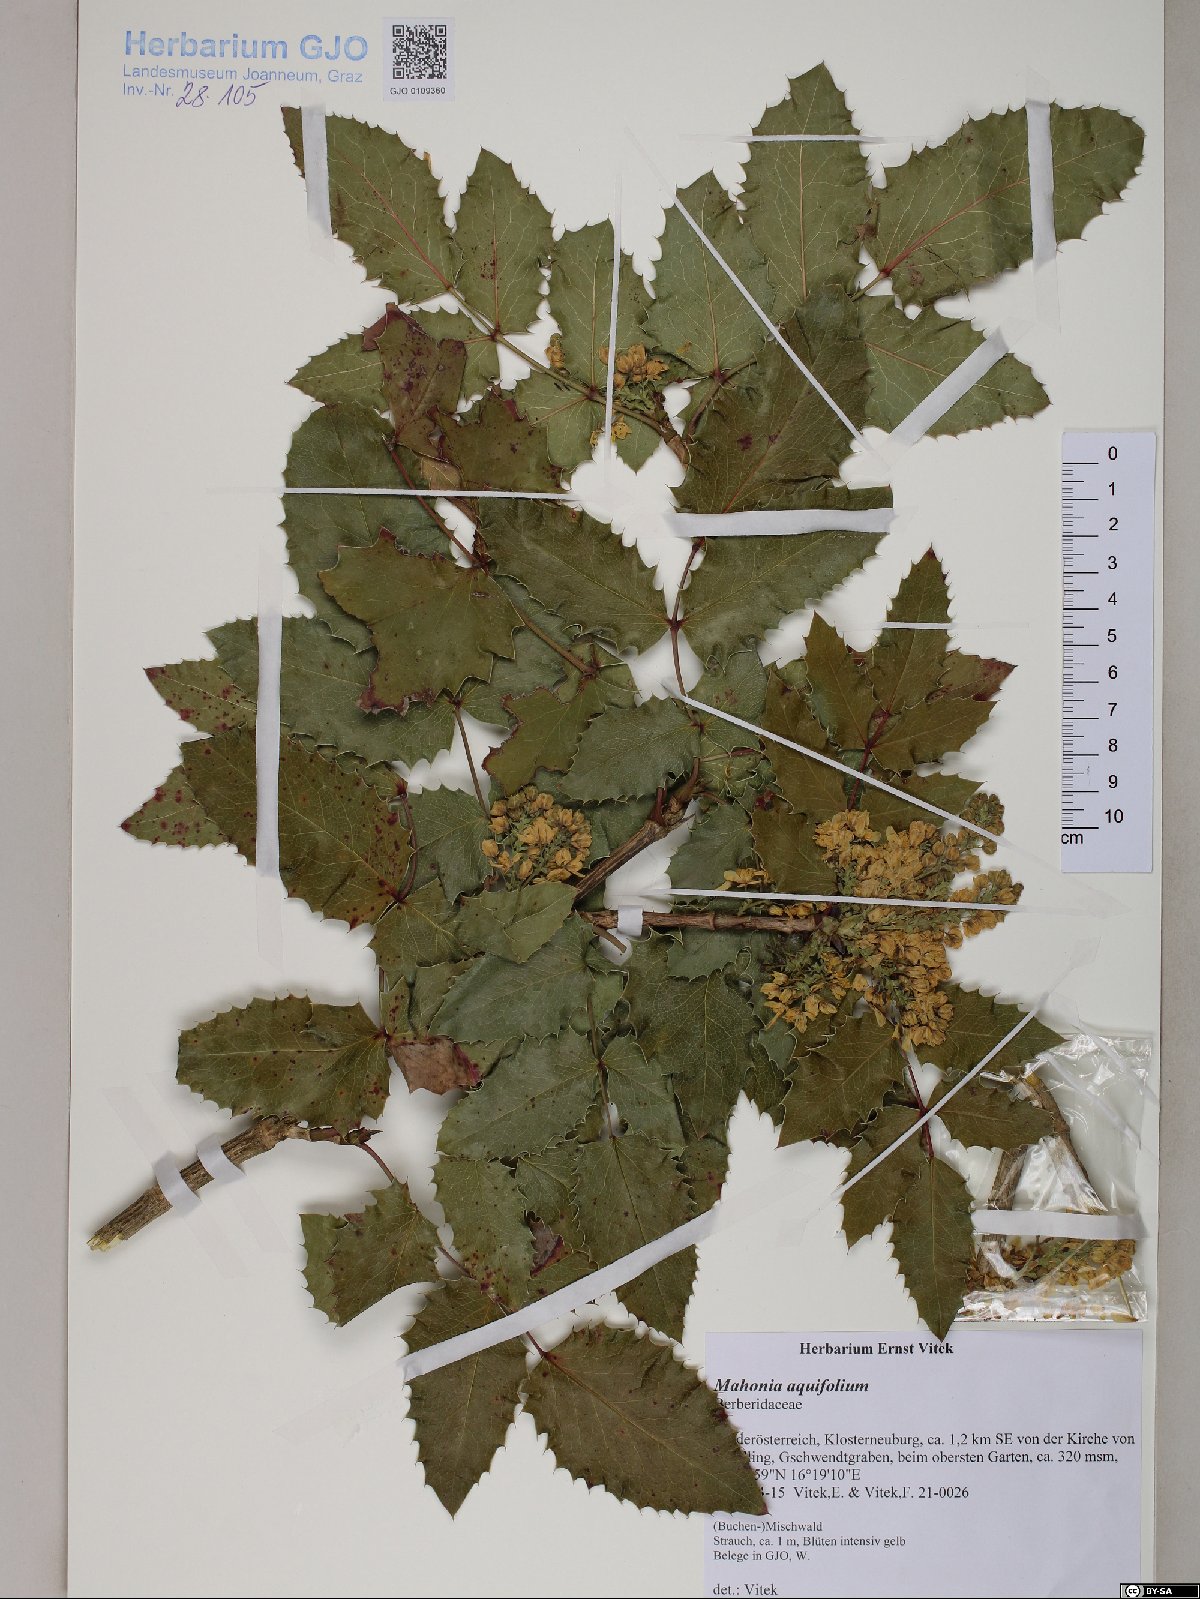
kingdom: Plantae
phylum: Tracheophyta
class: Magnoliopsida
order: Ranunculales
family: Berberidaceae
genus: Mahonia
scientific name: Mahonia aquifolium
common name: Oregon-grape
